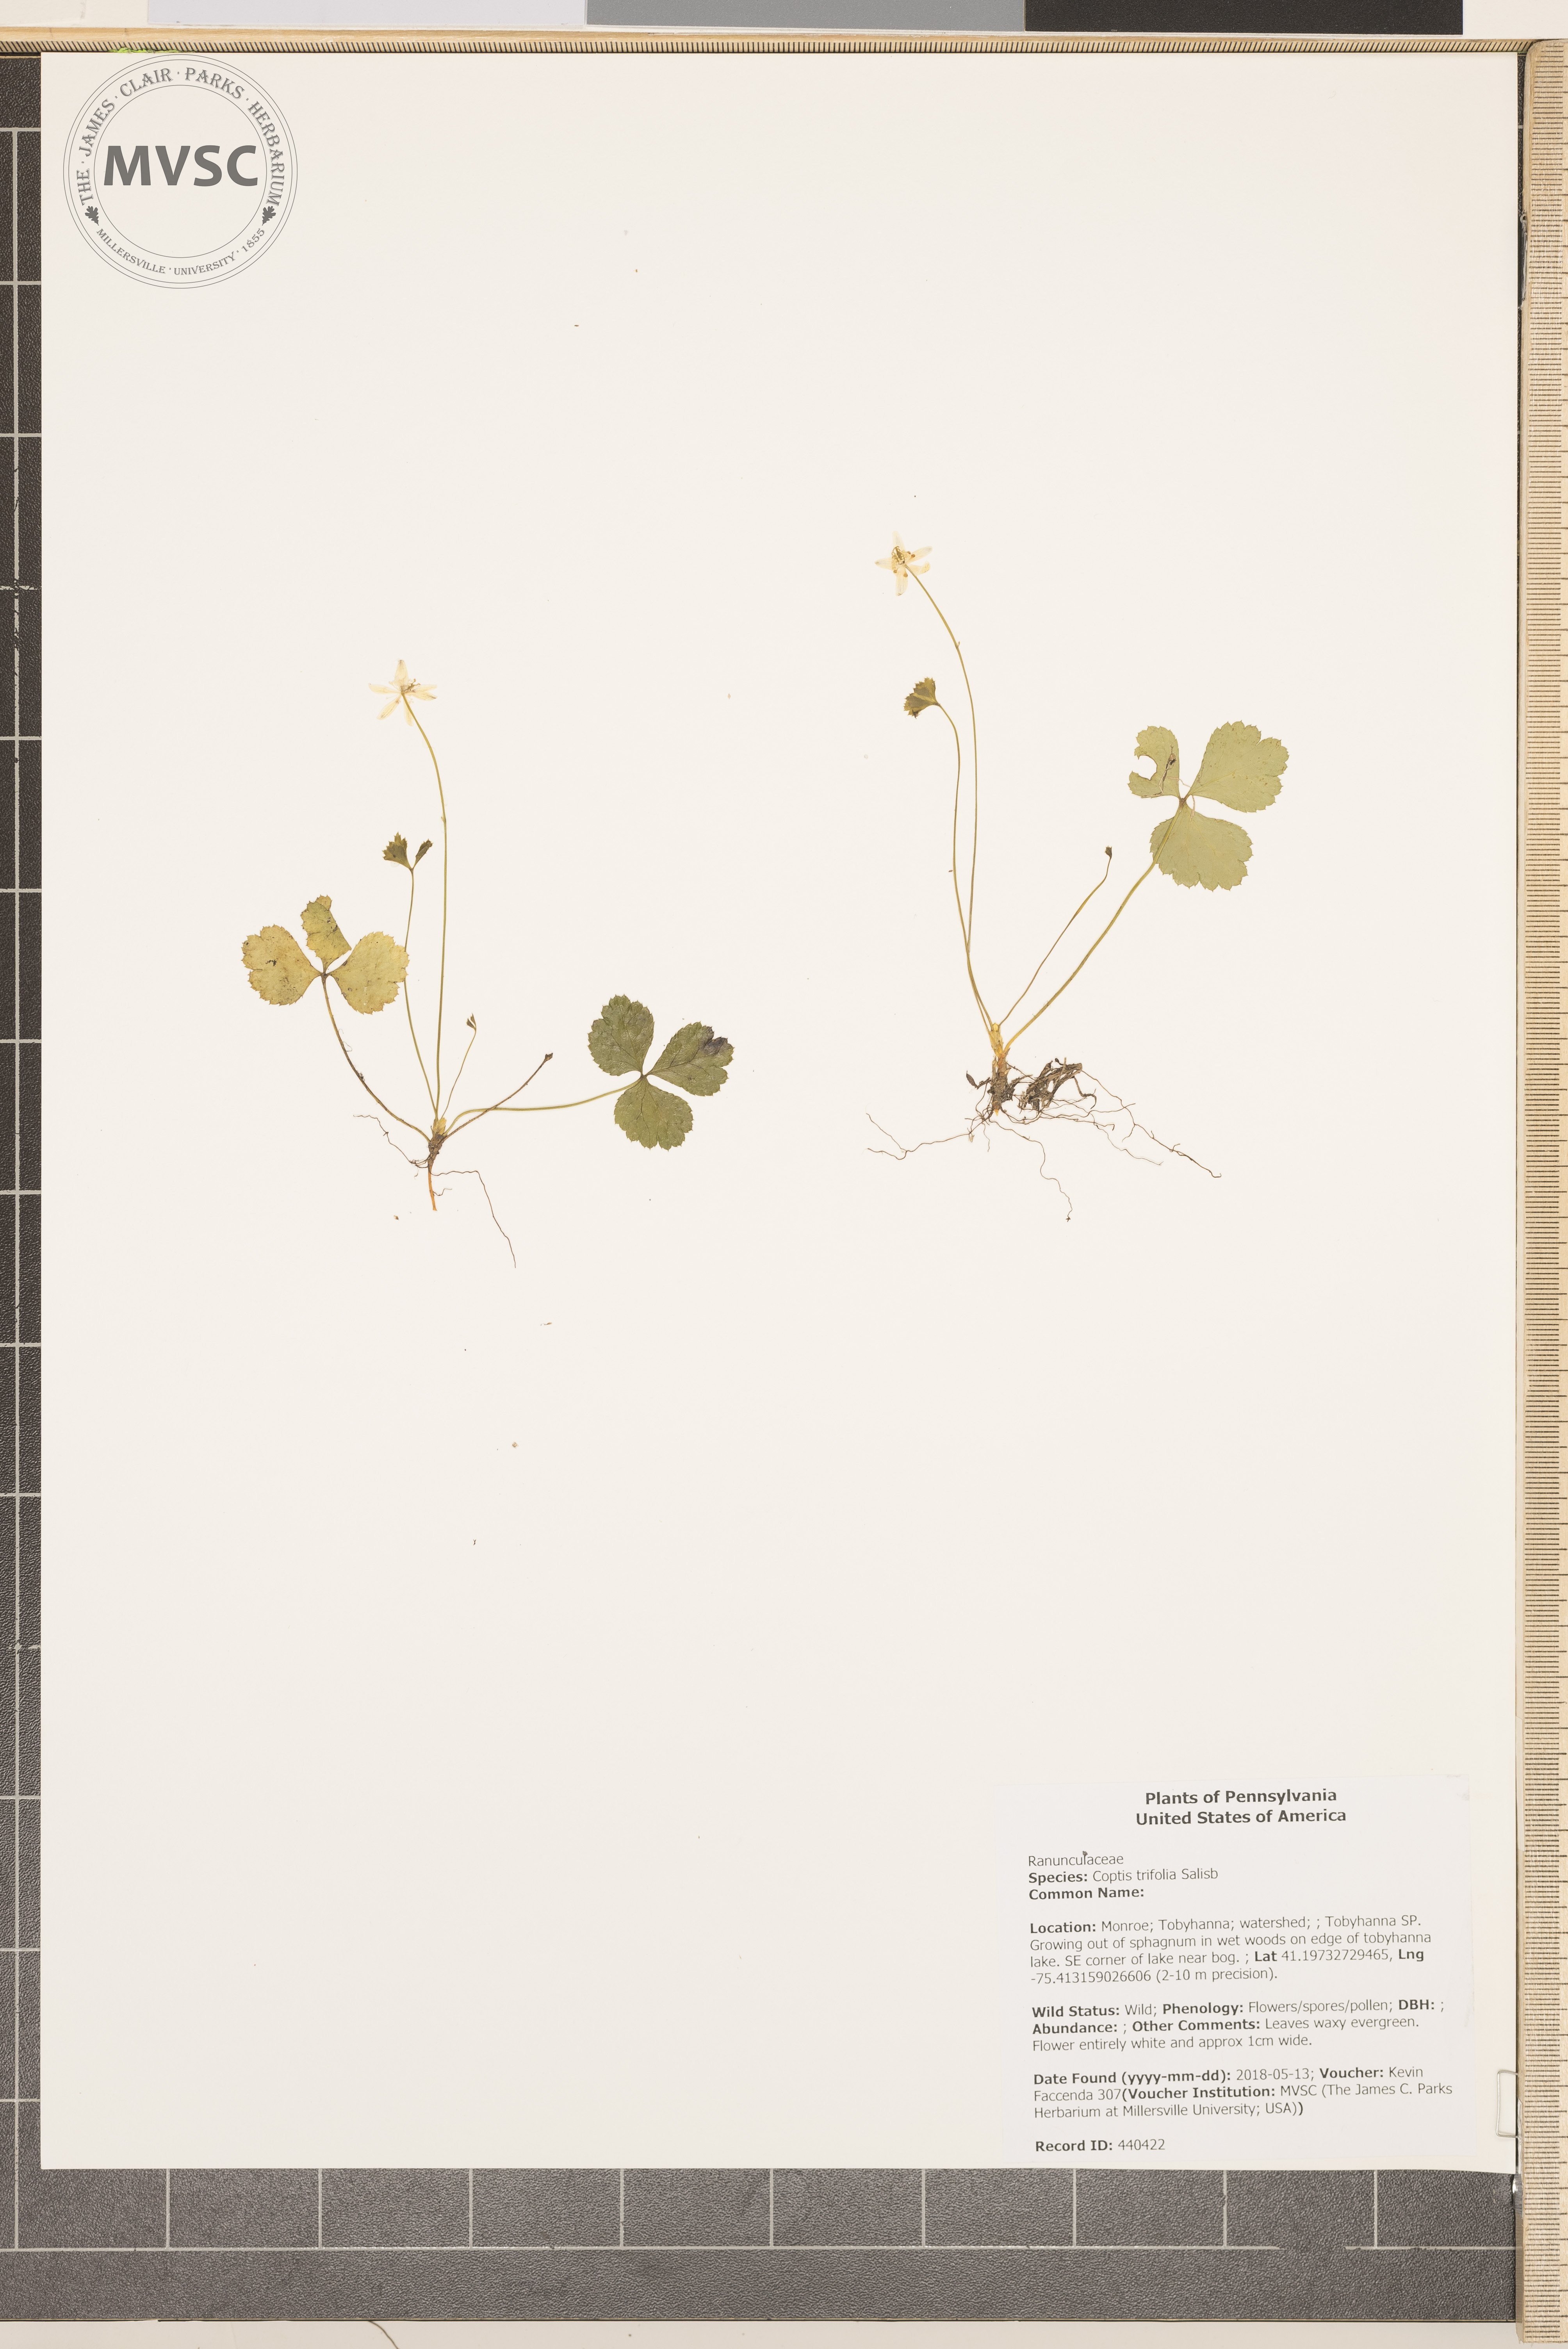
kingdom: Plantae
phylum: Tracheophyta
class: Magnoliopsida
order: Ranunculales
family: Ranunculaceae
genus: Coptis
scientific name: Coptis trifolia
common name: Canker-root
